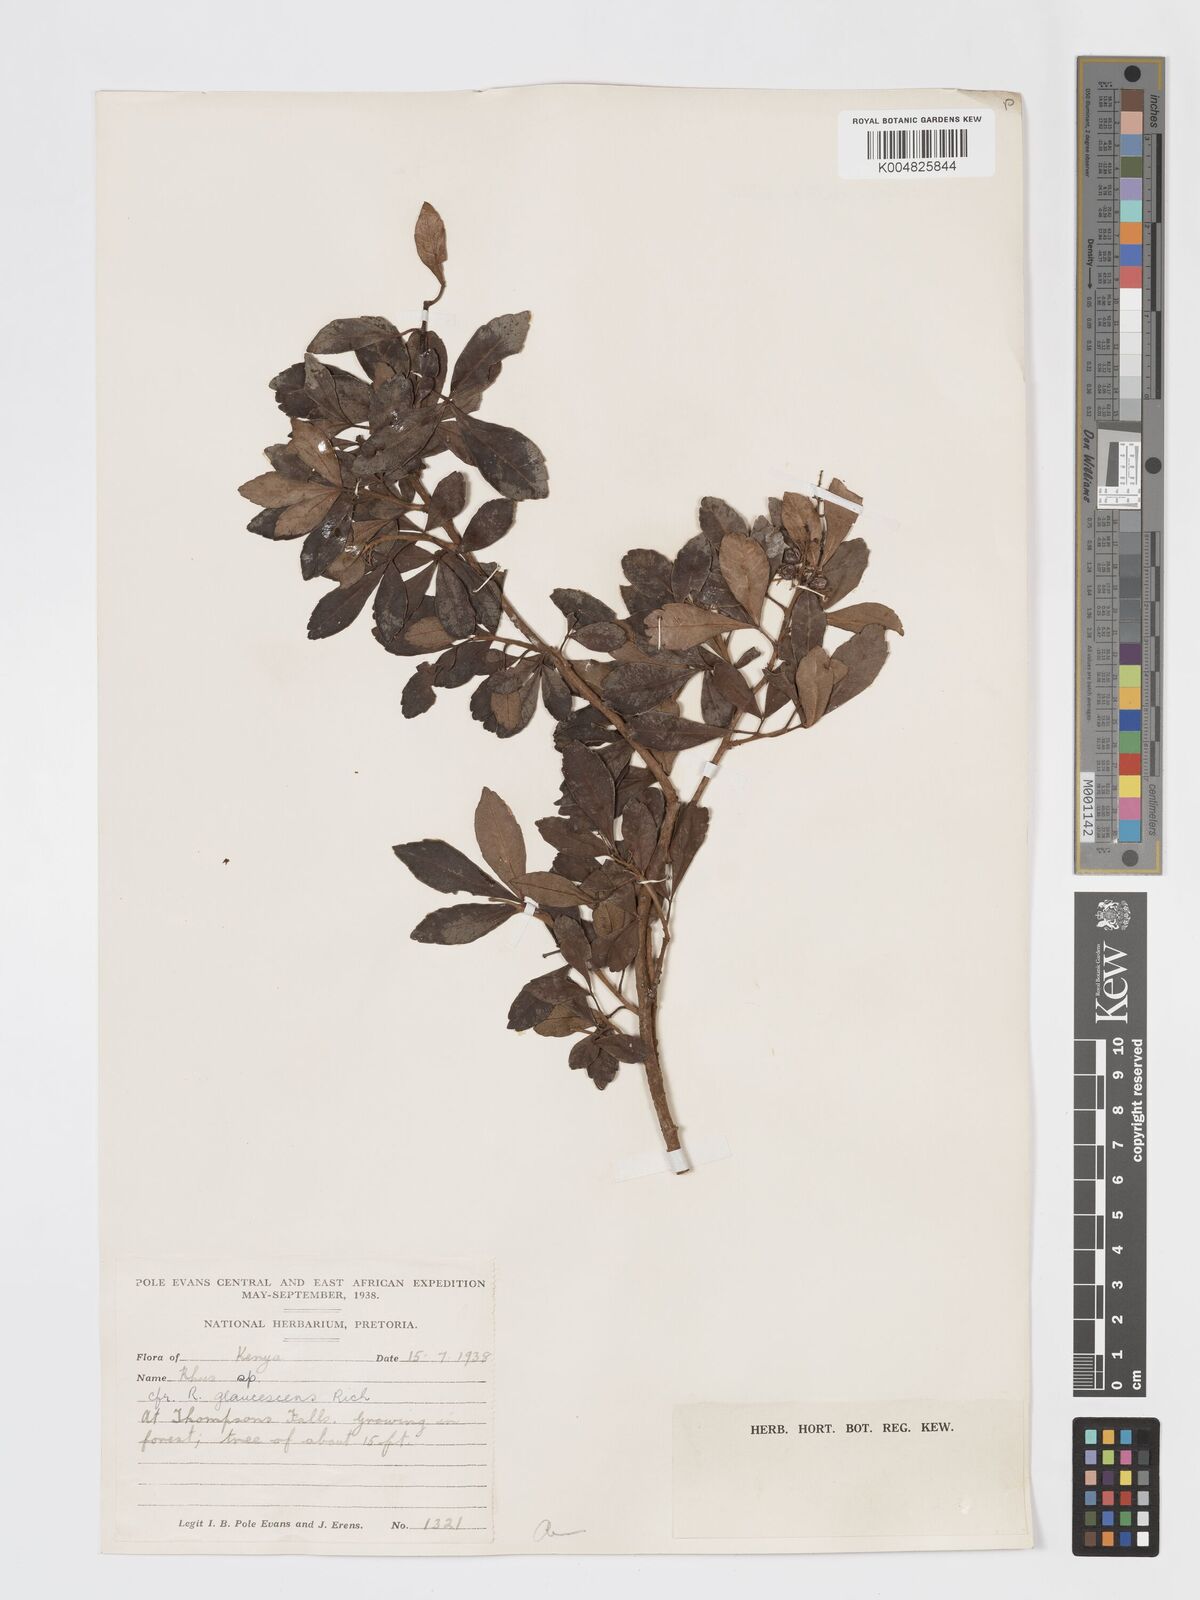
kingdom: Plantae
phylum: Tracheophyta
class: Magnoliopsida
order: Sapindales
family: Anacardiaceae
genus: Searsia
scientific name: Searsia natalensis
